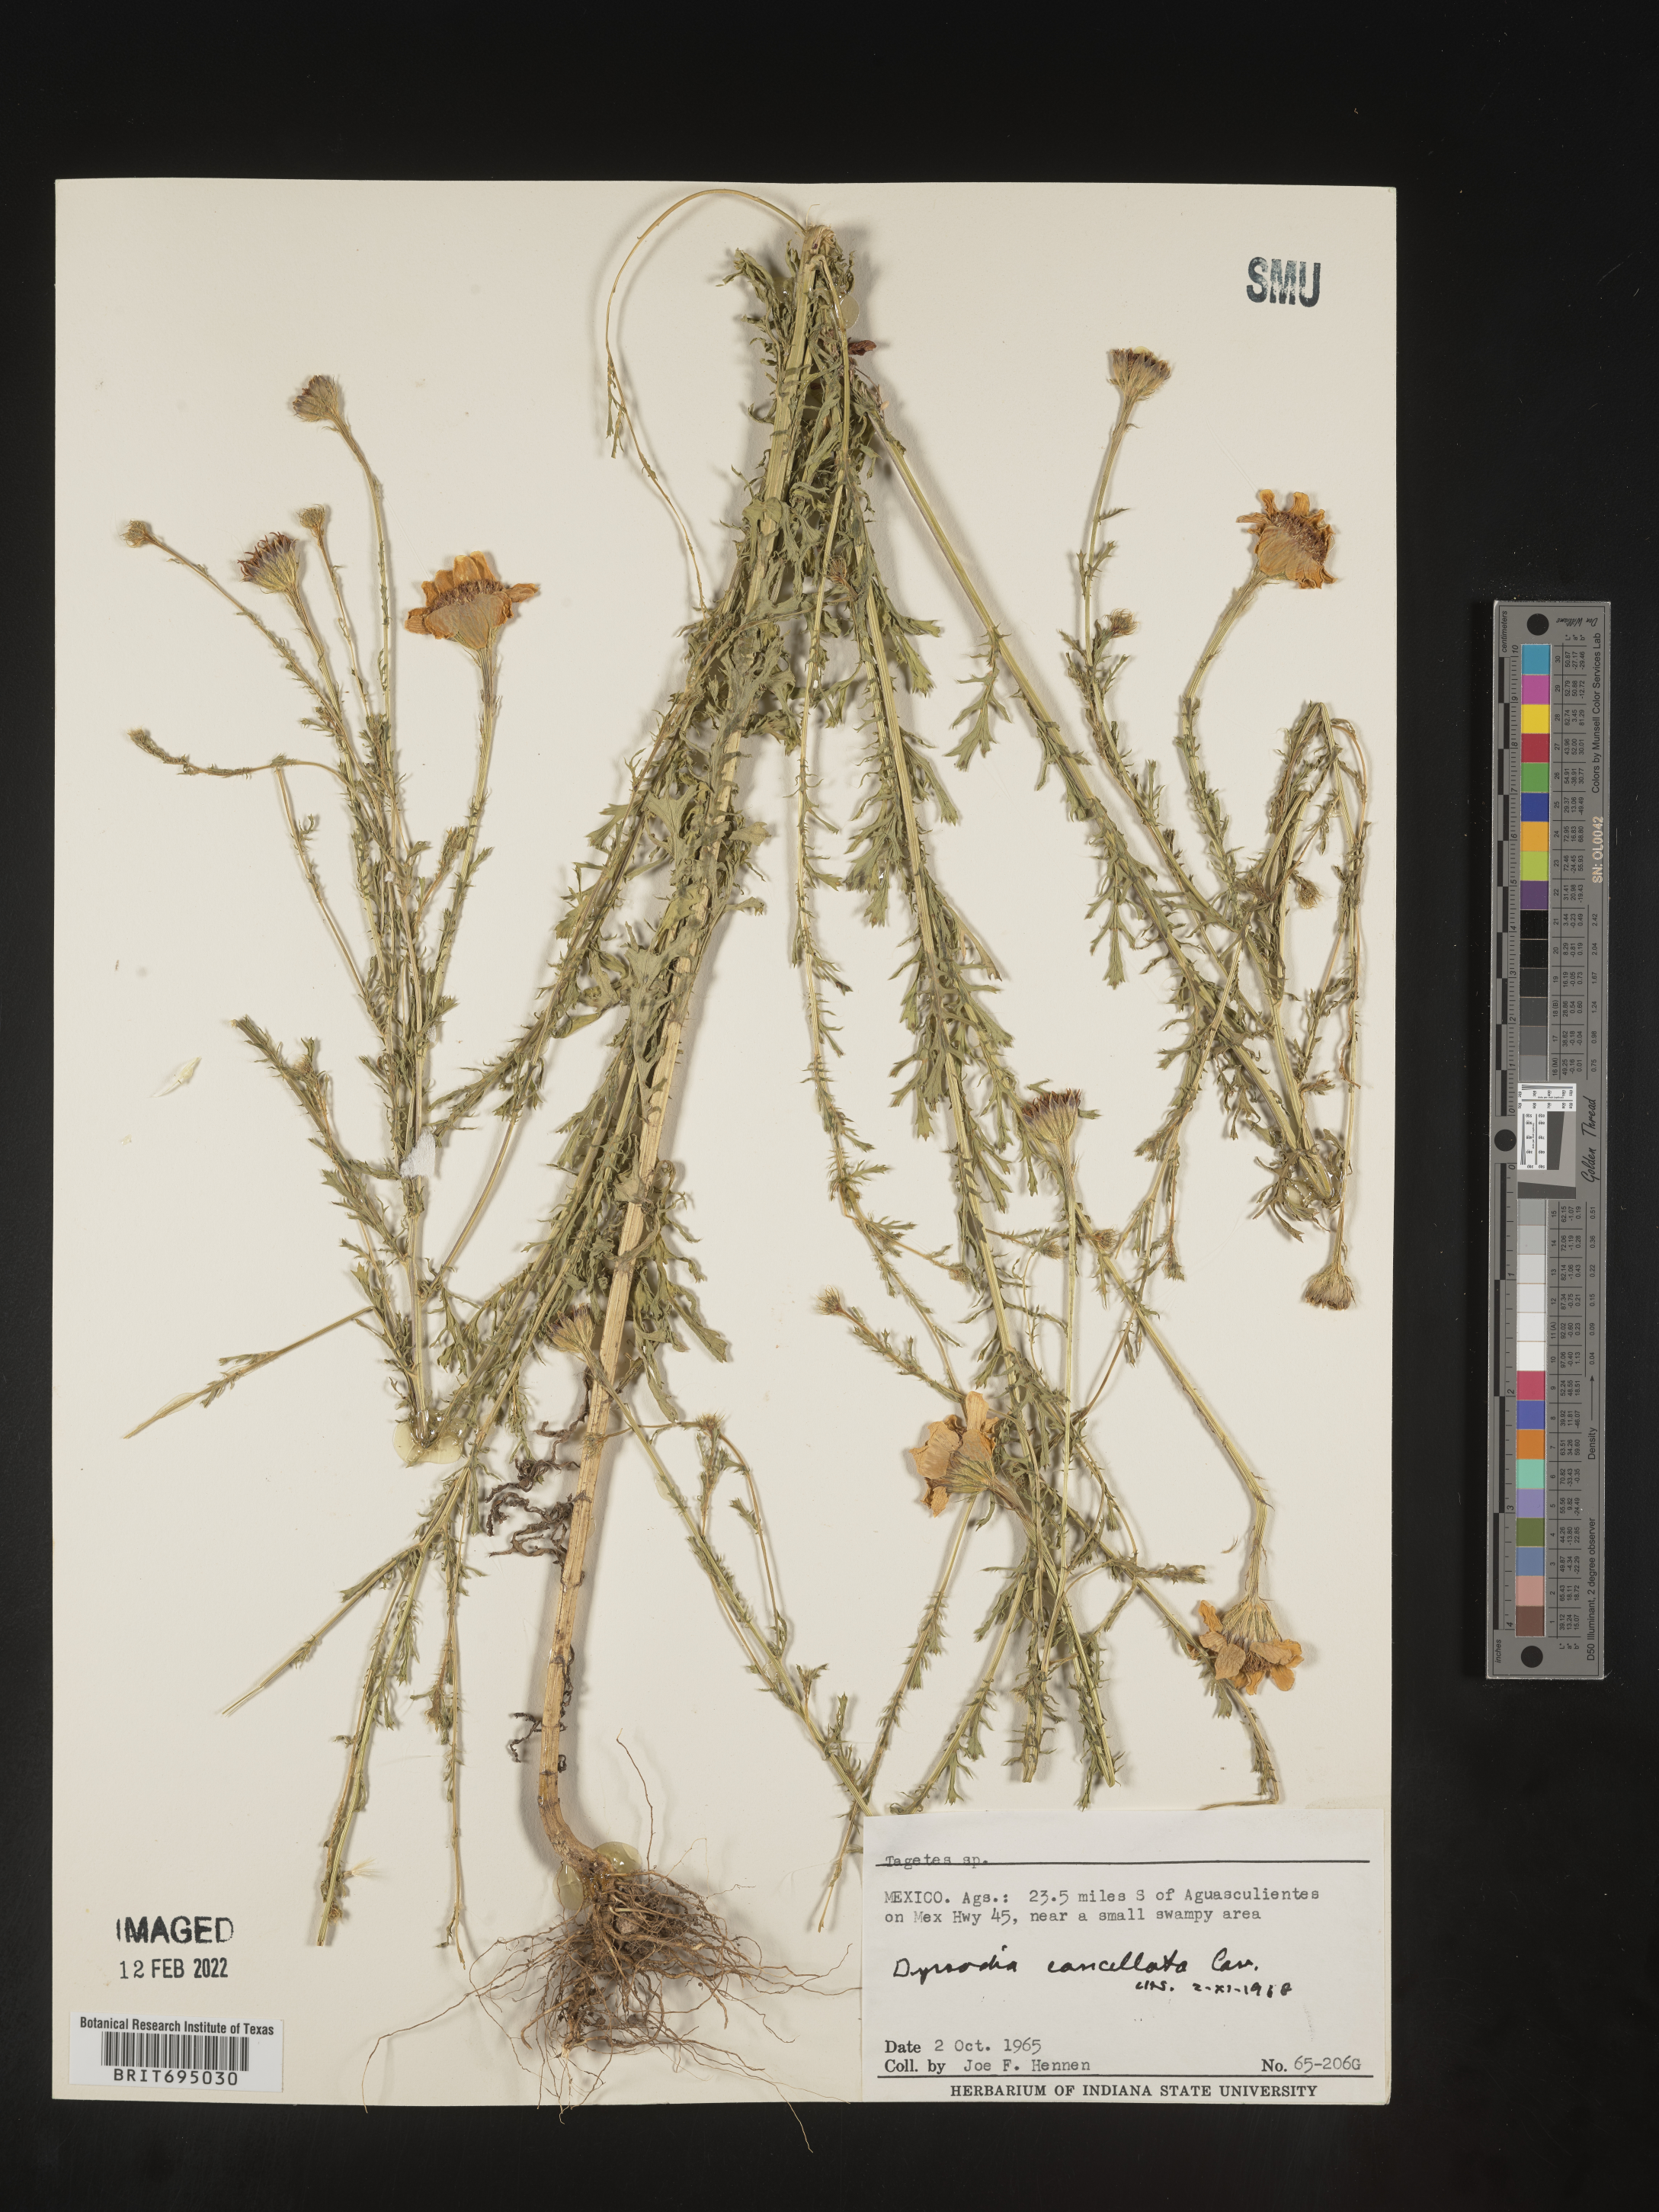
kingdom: Plantae
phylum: Tracheophyta
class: Magnoliopsida
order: Asterales
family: Asteraceae
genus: Adenophyllum
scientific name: Adenophyllum cancellatum
